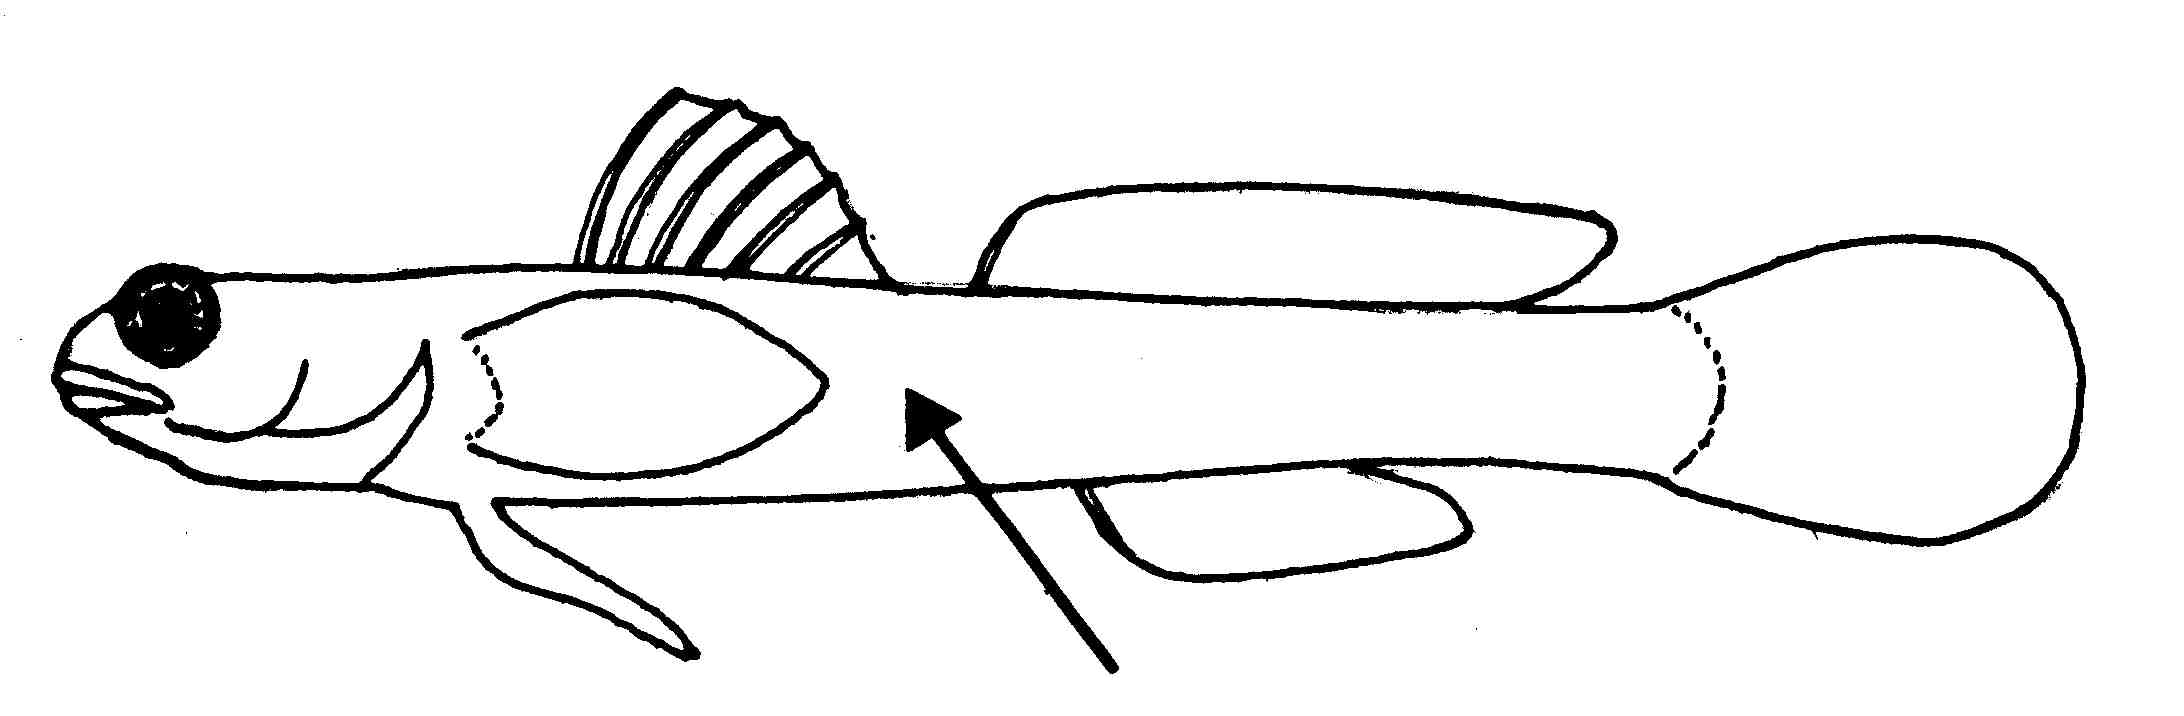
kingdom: Animalia
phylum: Chordata
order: Perciformes
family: Gobiidae
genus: Kelloggella
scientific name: Kelloggella
